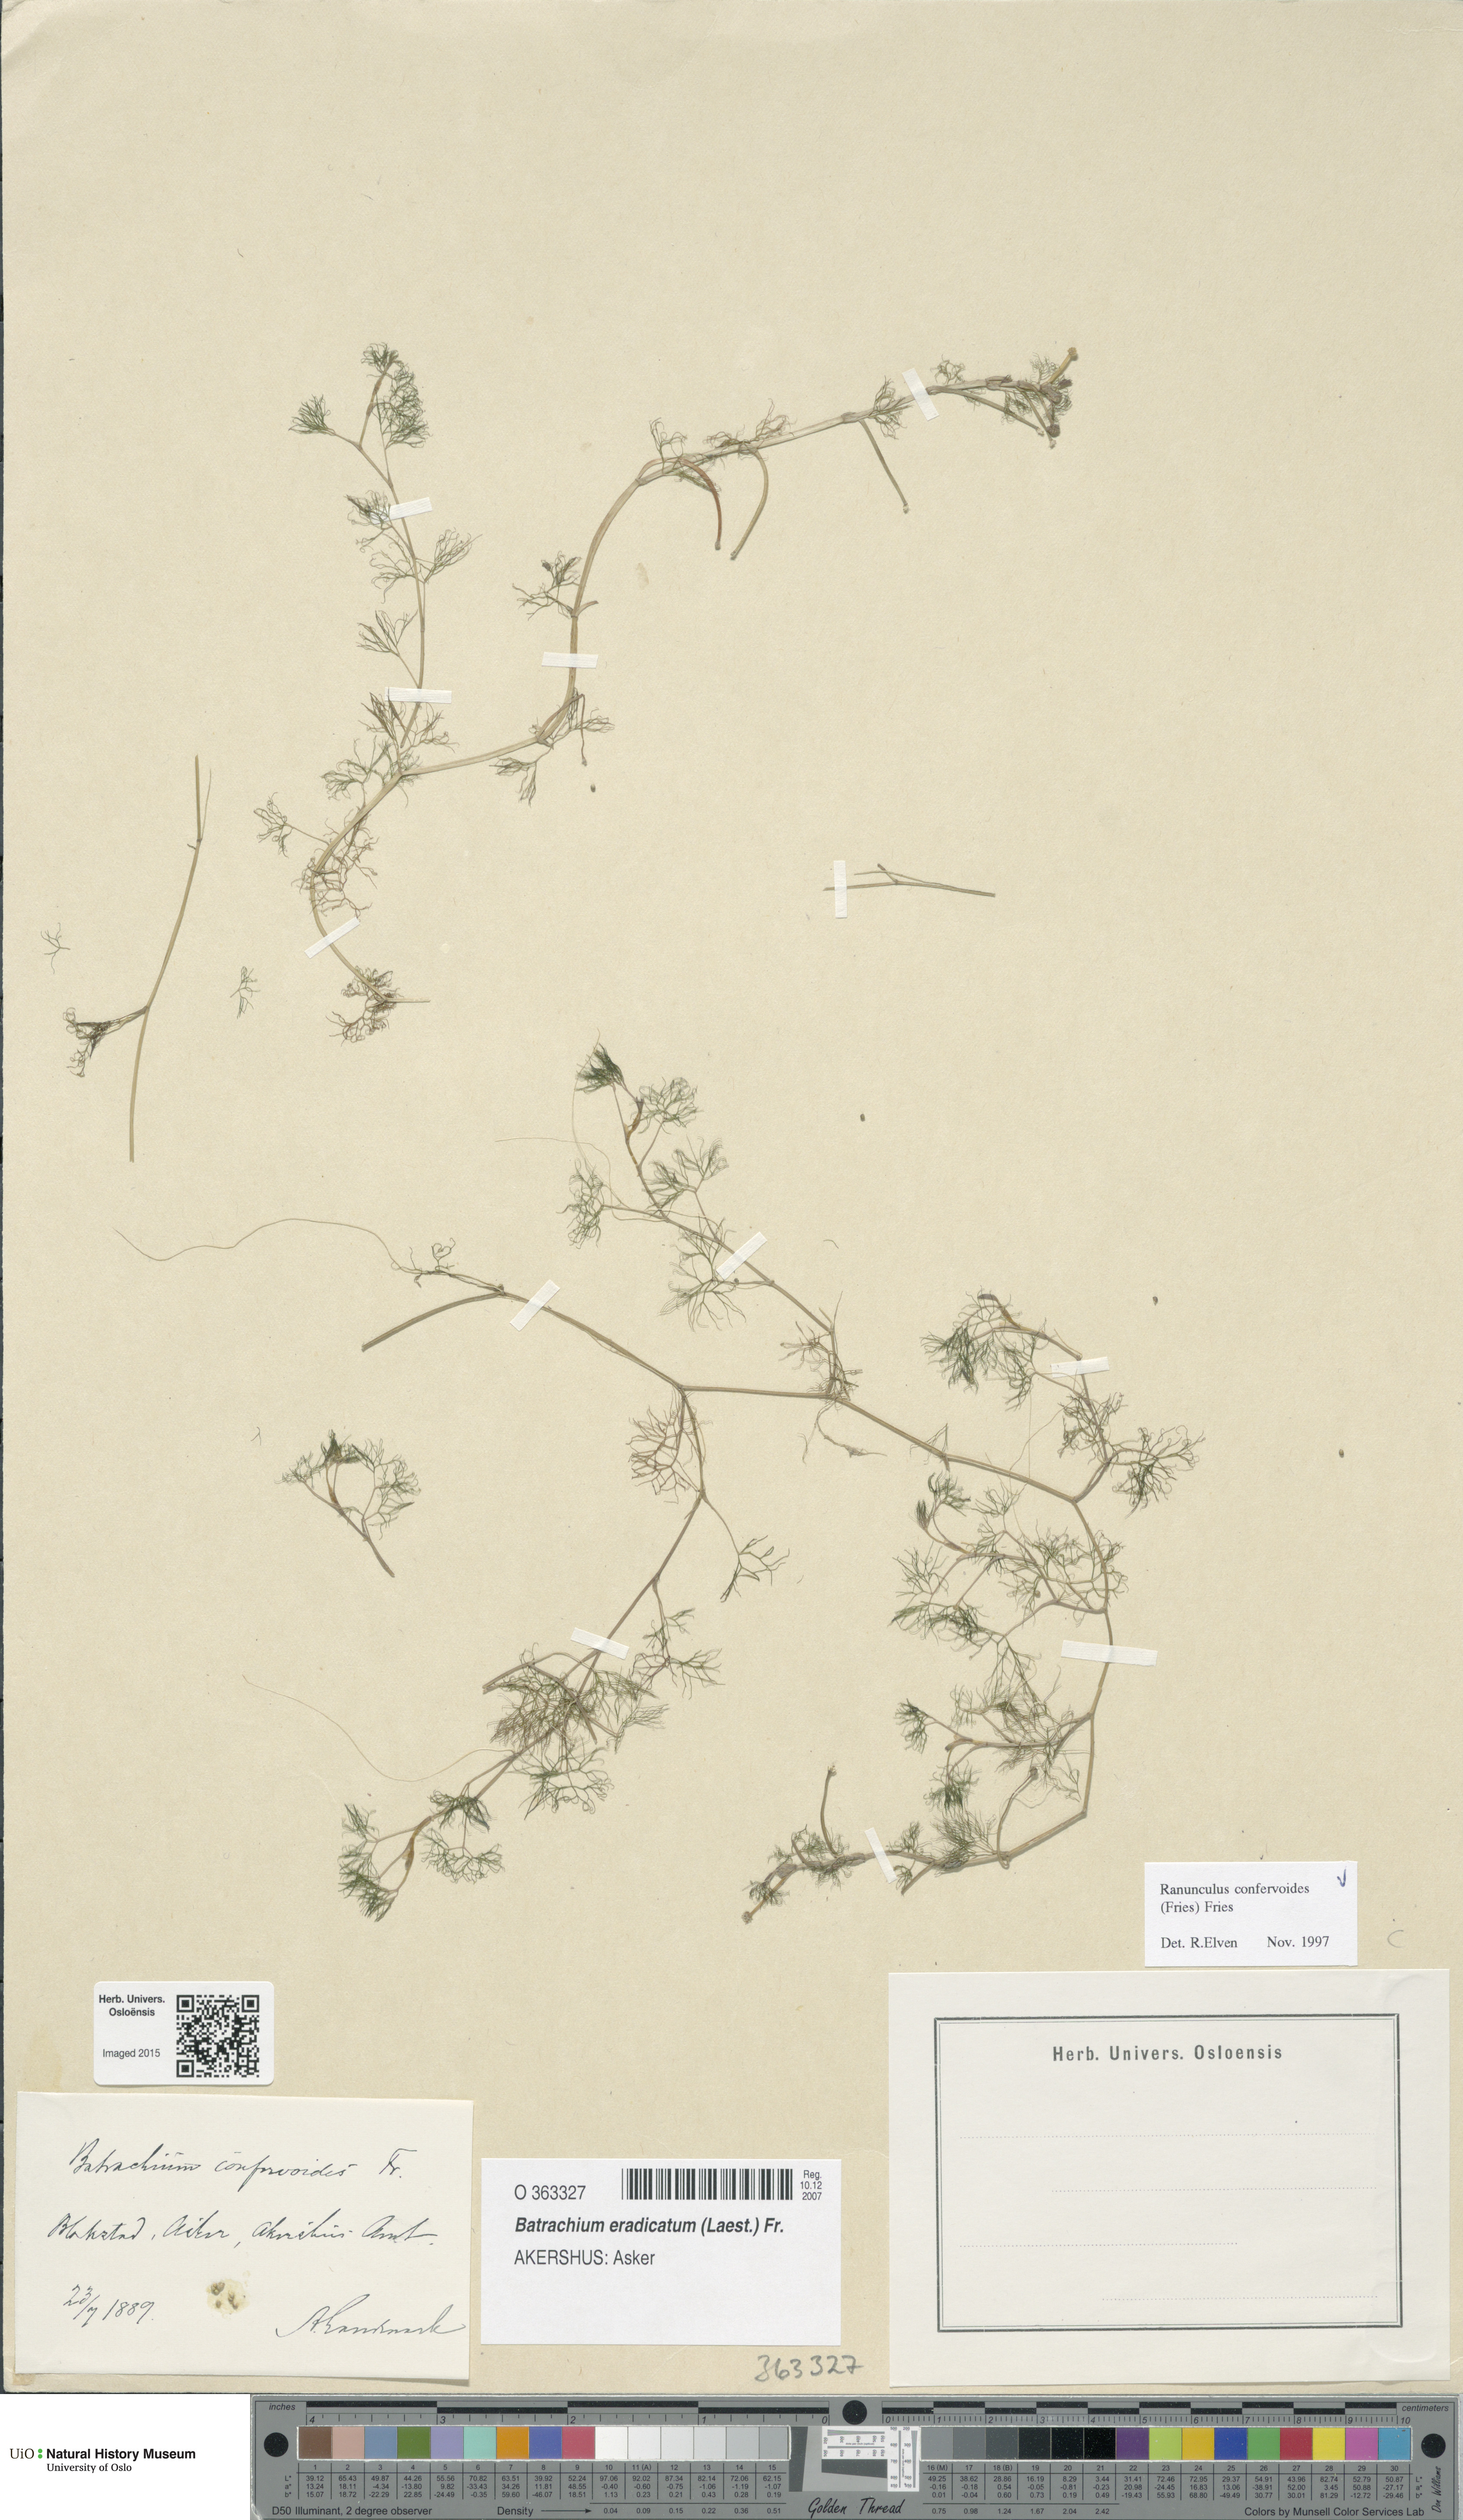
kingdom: Plantae
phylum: Tracheophyta
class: Magnoliopsida
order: Ranunculales
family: Ranunculaceae
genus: Ranunculus
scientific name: Ranunculus confervoides
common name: Delicate buttercup
